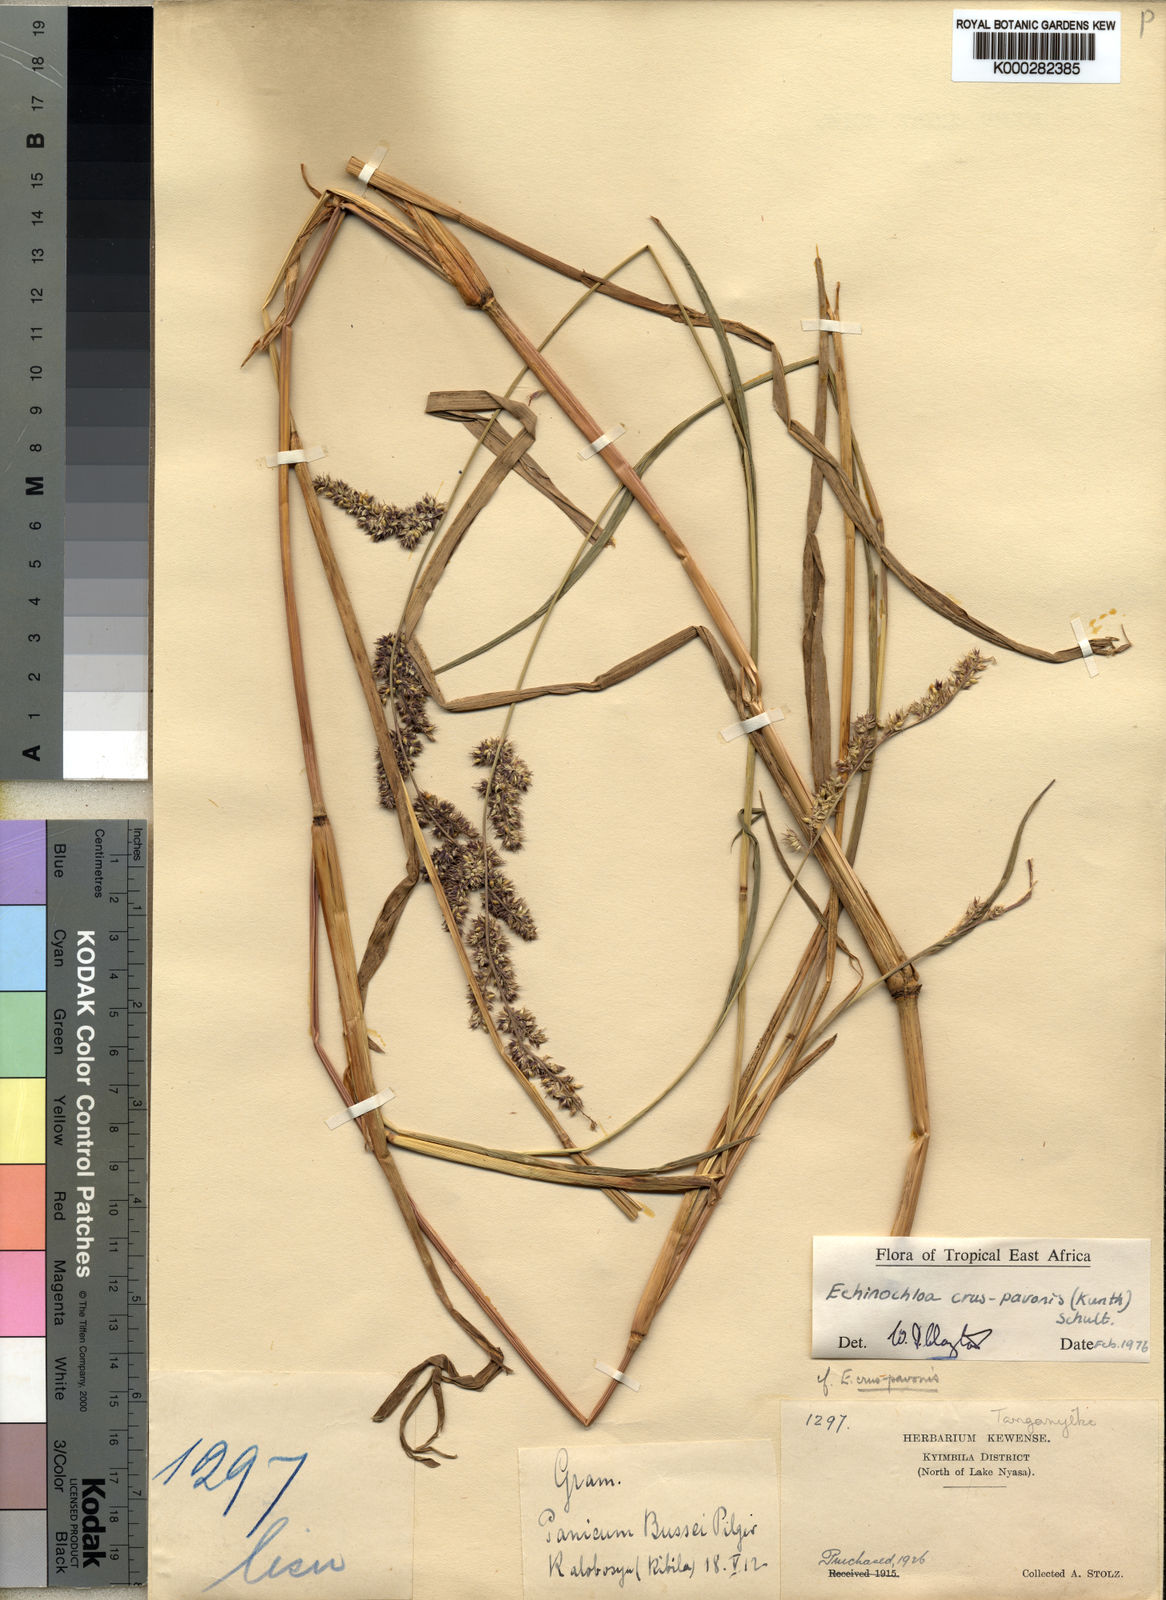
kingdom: Plantae
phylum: Tracheophyta
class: Liliopsida
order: Poales
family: Poaceae
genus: Echinochloa
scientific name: Echinochloa crus-pavonis
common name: Gulf cockspur grass
